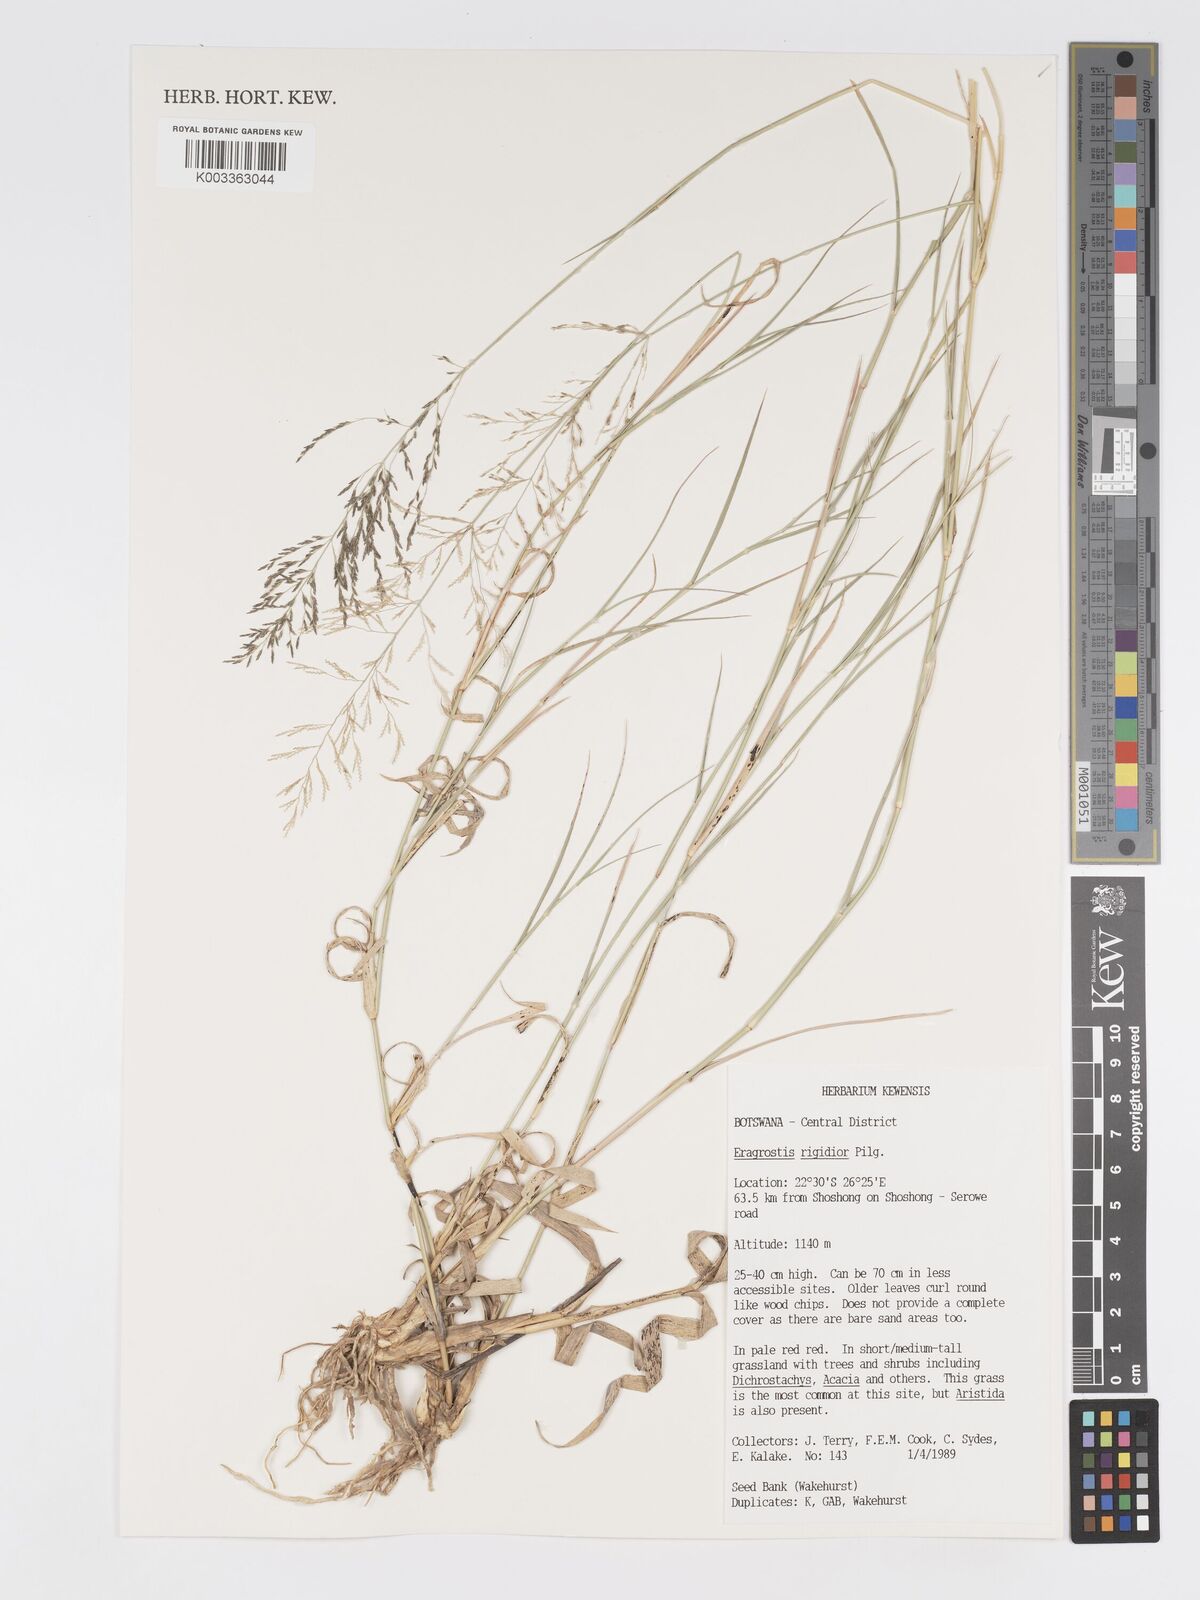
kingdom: Plantae
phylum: Tracheophyta
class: Liliopsida
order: Poales
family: Poaceae
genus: Eragrostis
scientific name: Eragrostis cylindriflora
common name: Cylinderflower lovegrass
